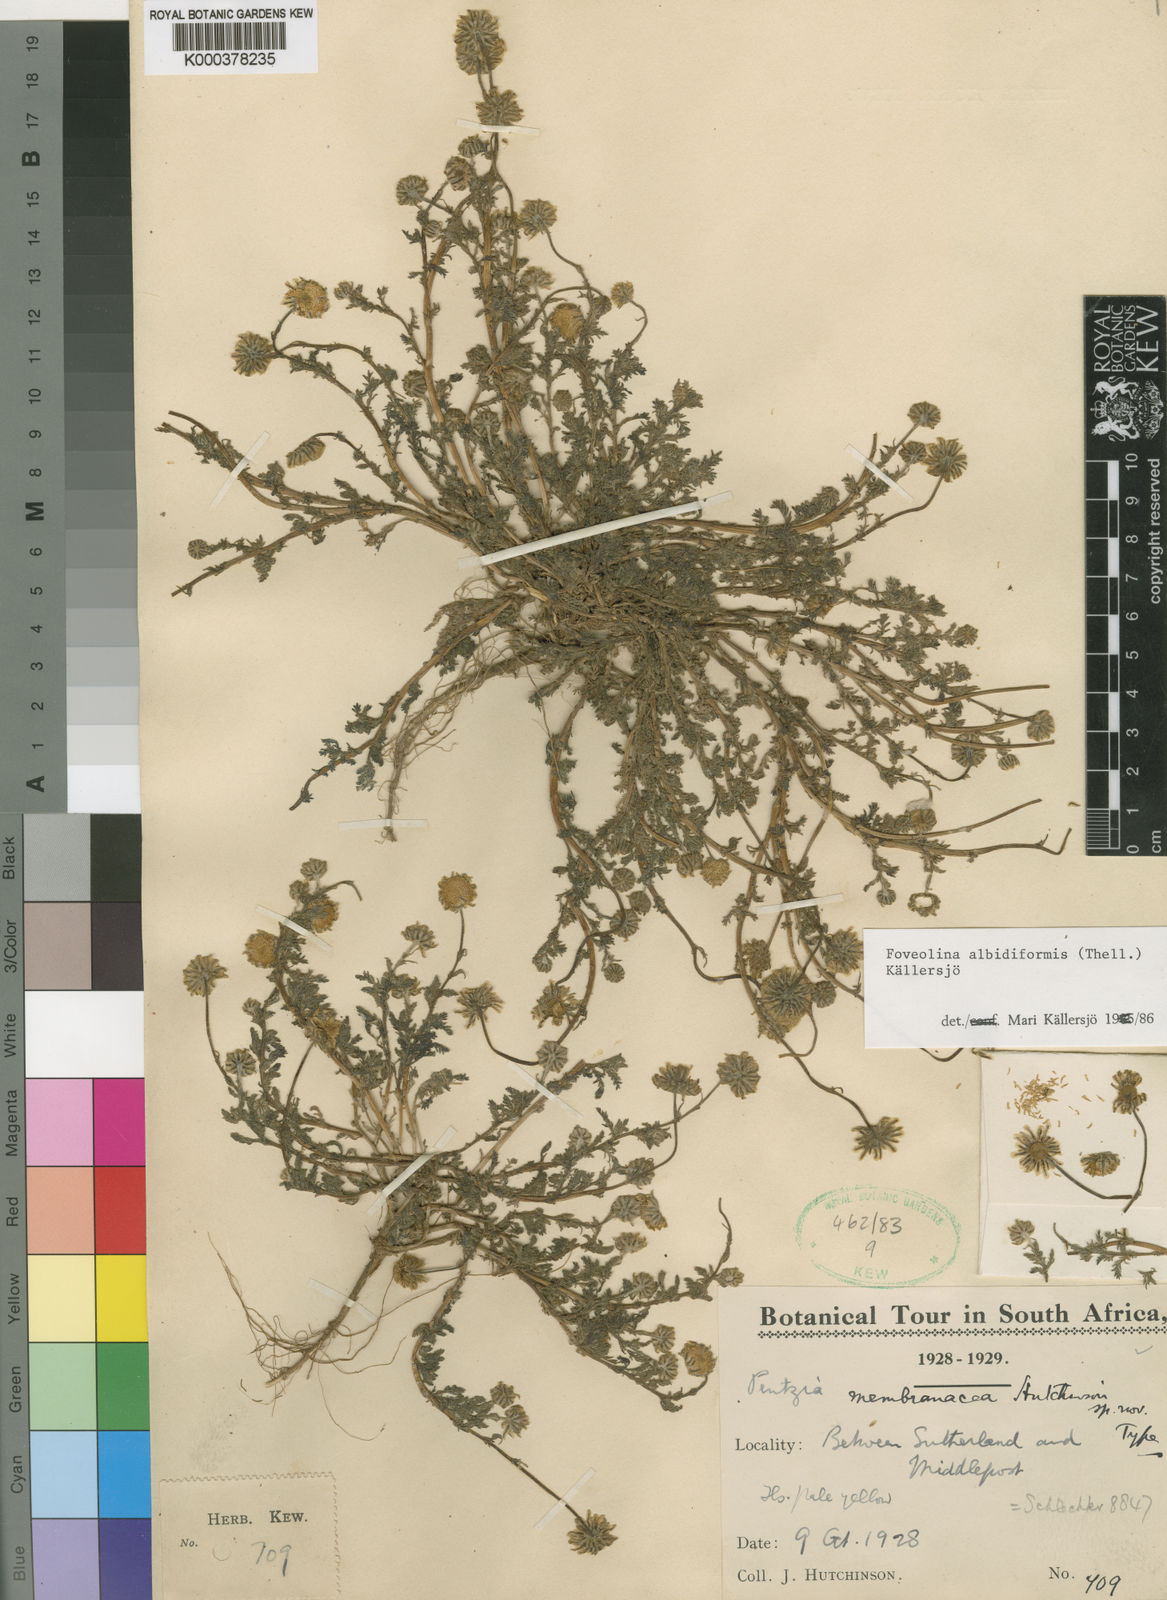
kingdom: Plantae
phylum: Tracheophyta
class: Magnoliopsida
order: Asterales
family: Asteraceae
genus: Foveolina
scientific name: Foveolina
